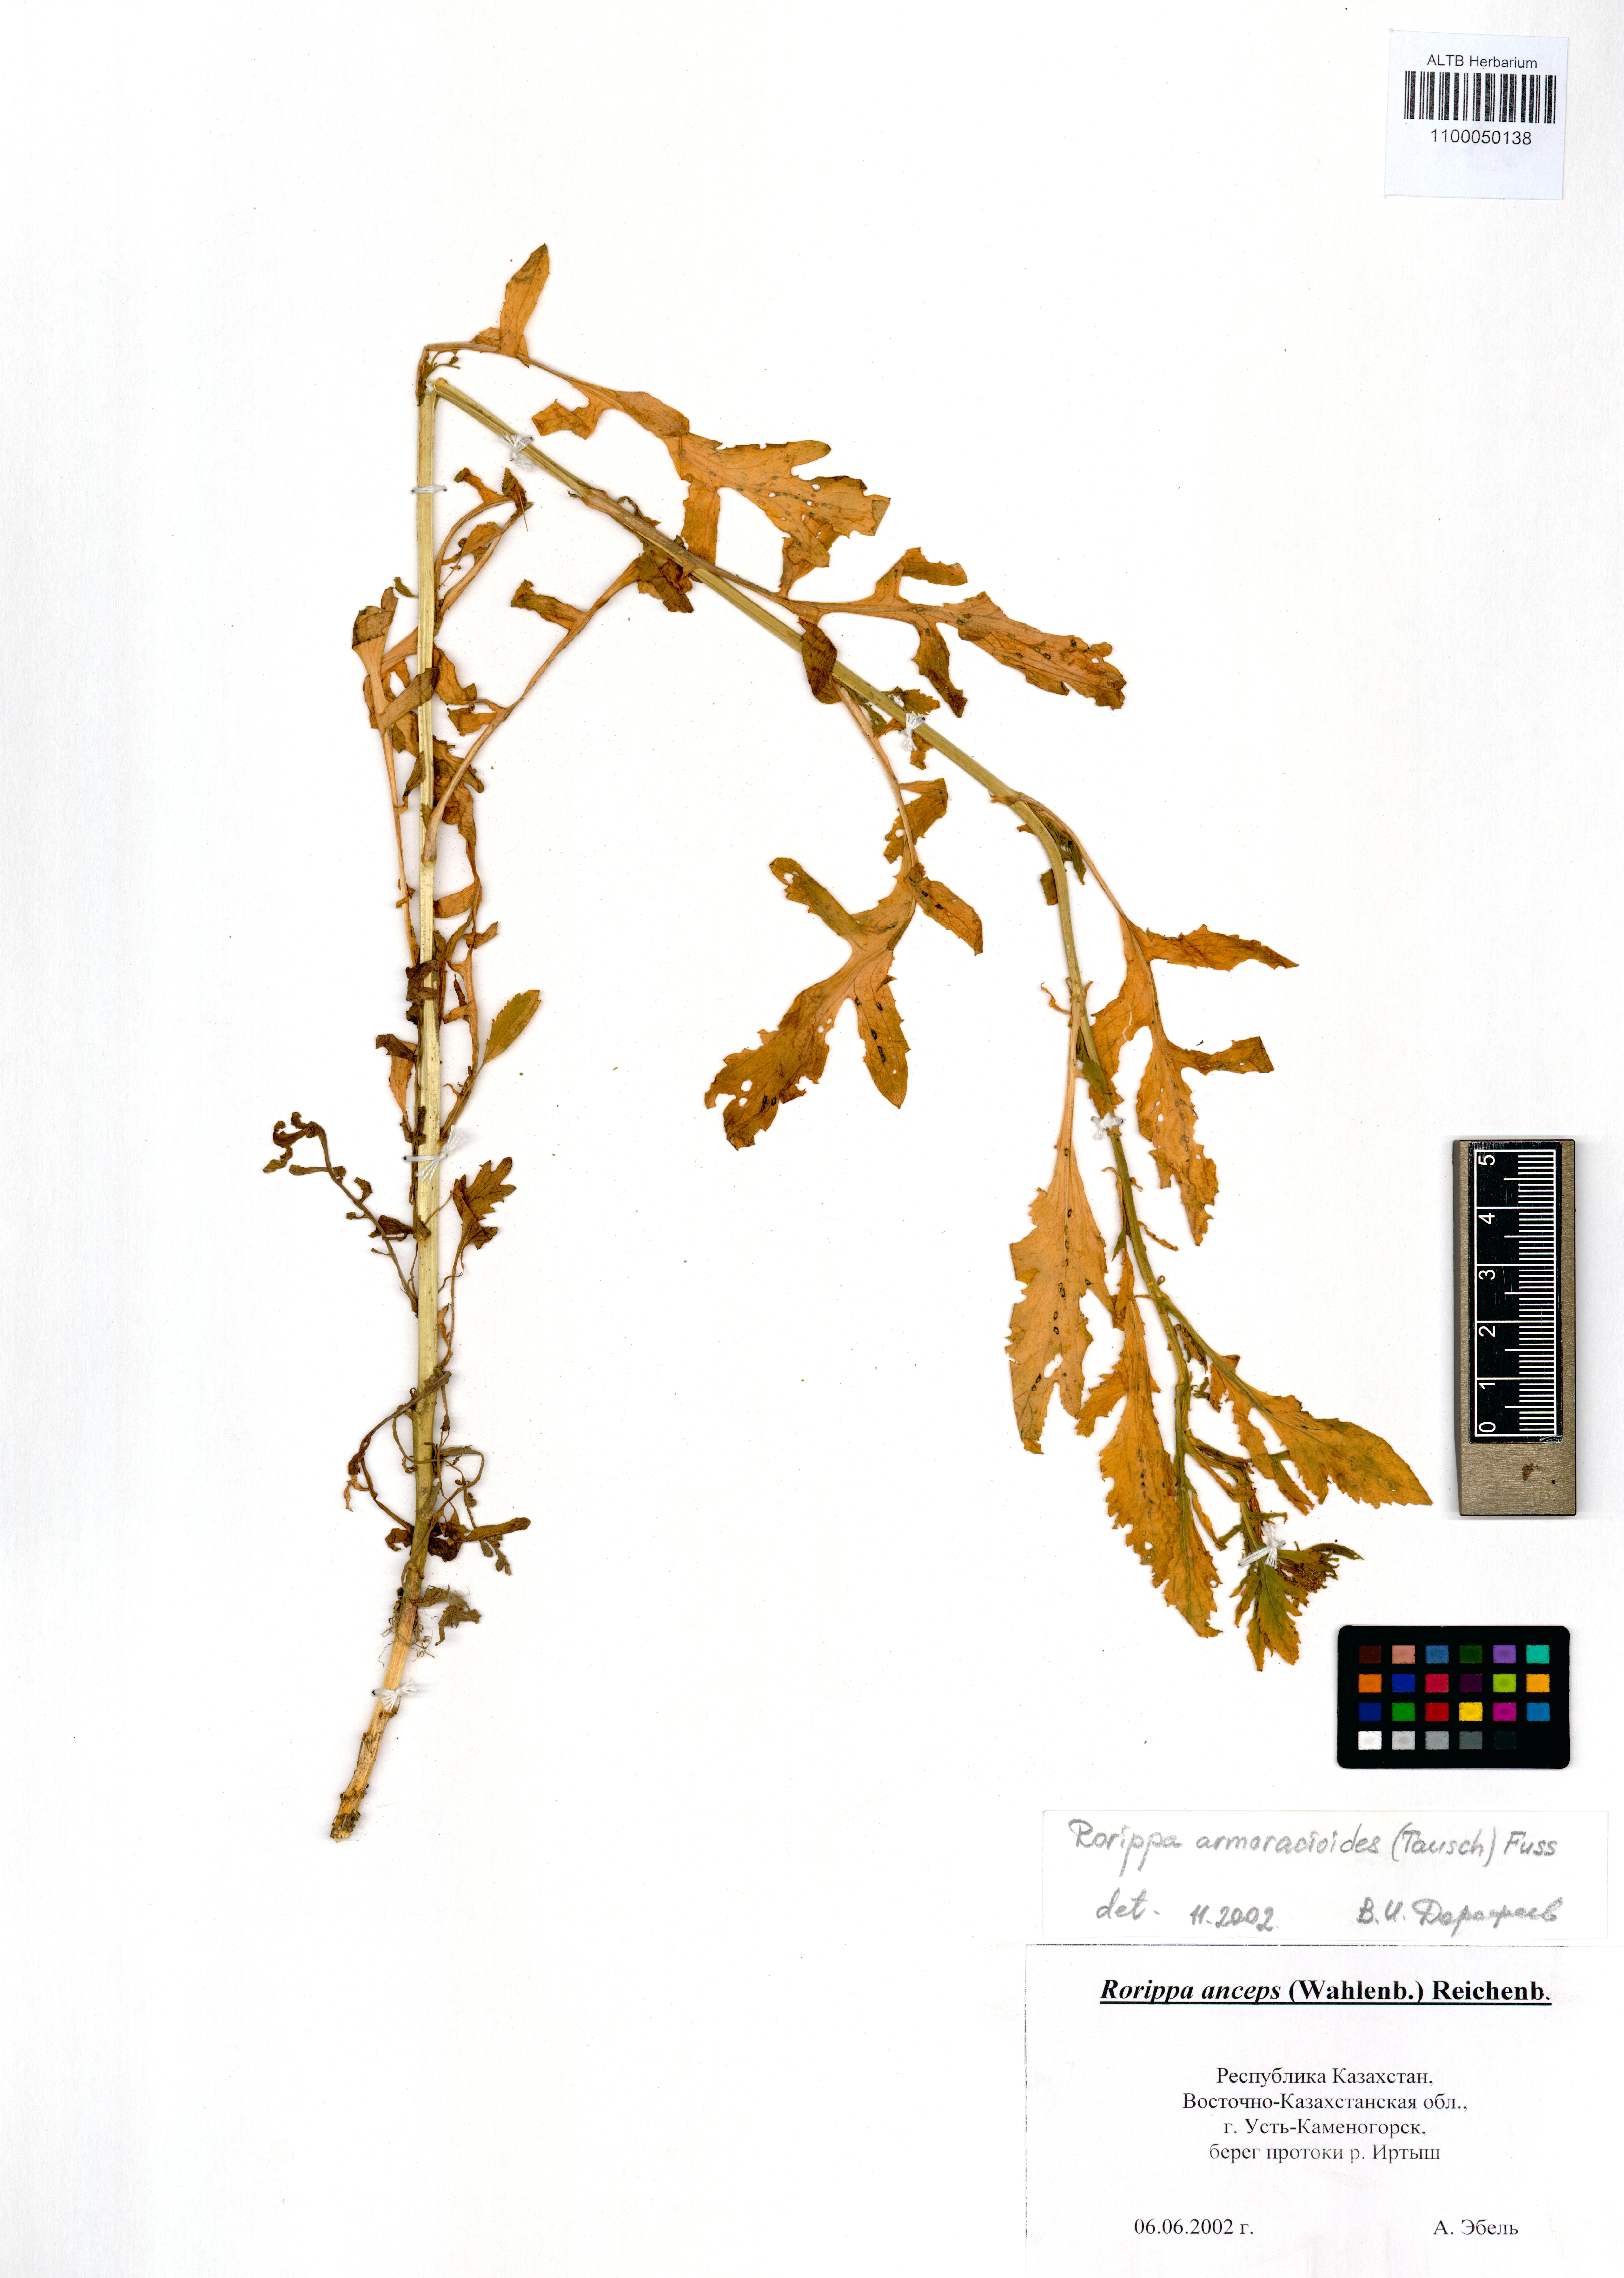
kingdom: Plantae
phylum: Tracheophyta
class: Magnoliopsida
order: Brassicales
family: Brassicaceae
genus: Rorippa
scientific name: Rorippa anceps
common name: Rorippa
